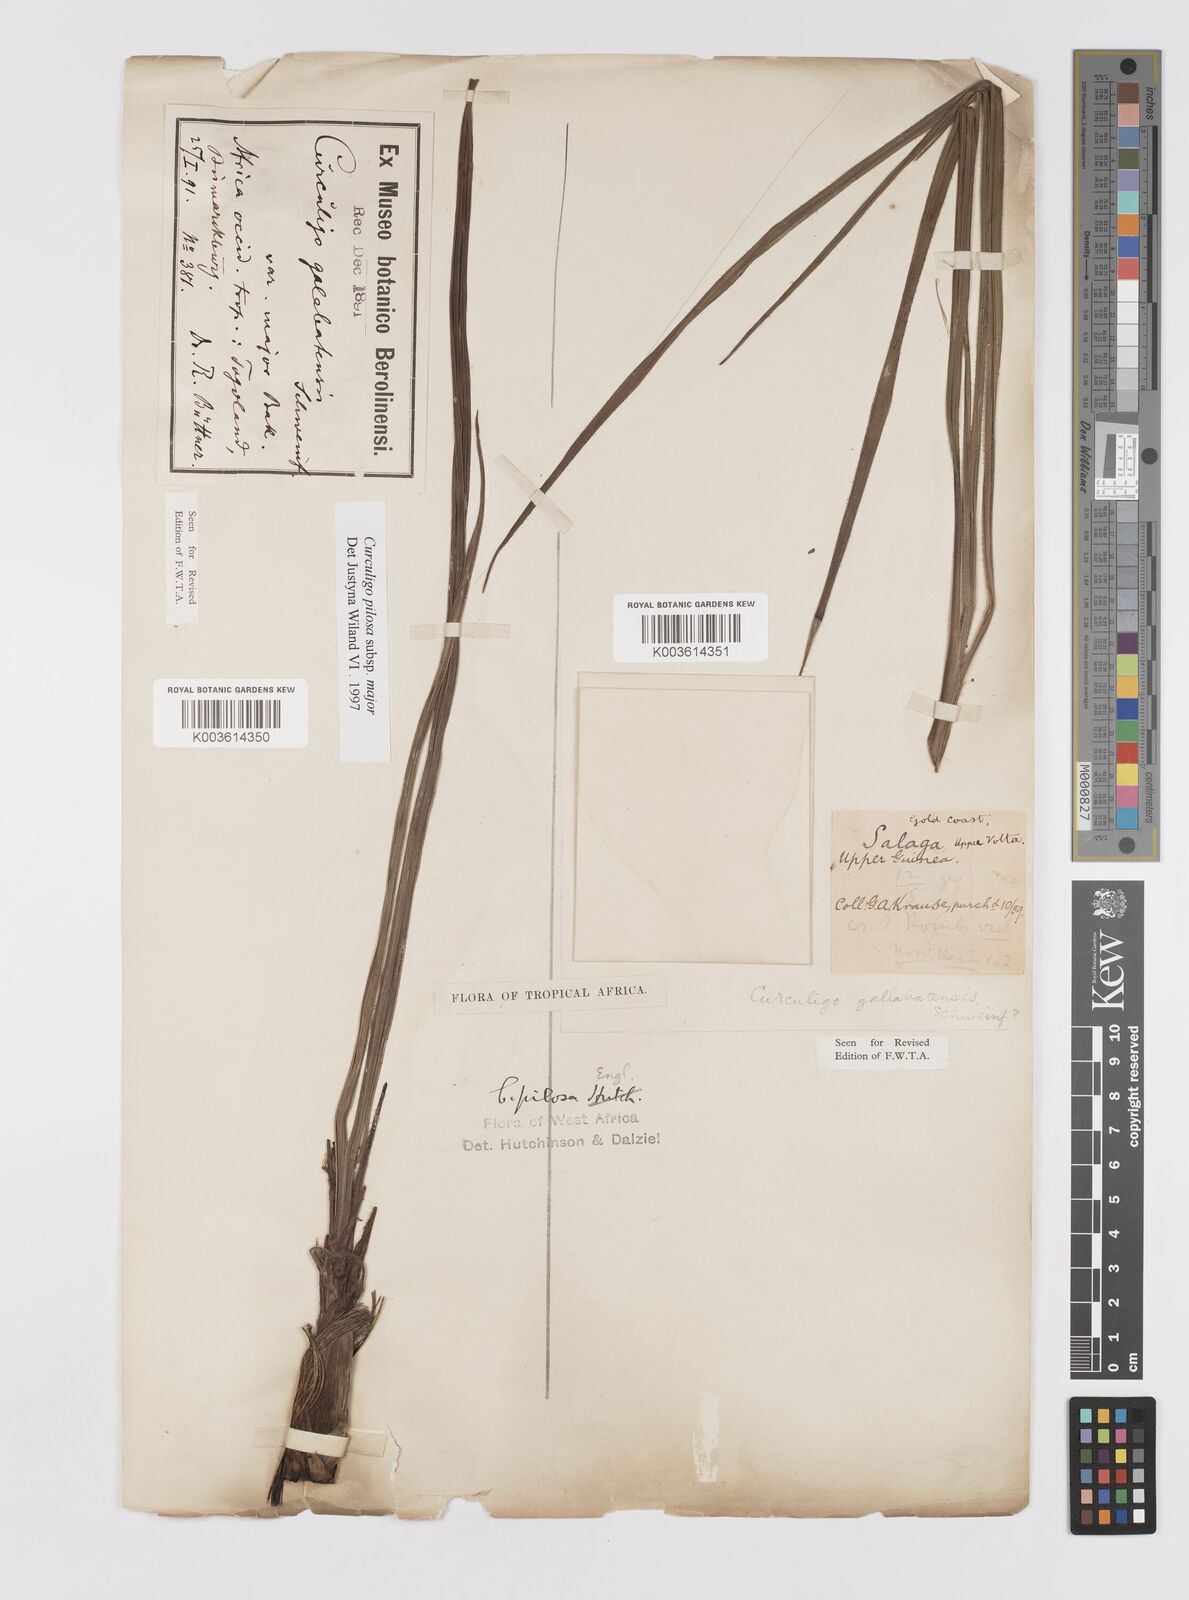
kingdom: Plantae
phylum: Tracheophyta
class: Liliopsida
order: Asparagales
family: Hypoxidaceae
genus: Curculigo
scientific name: Curculigo pilosa
